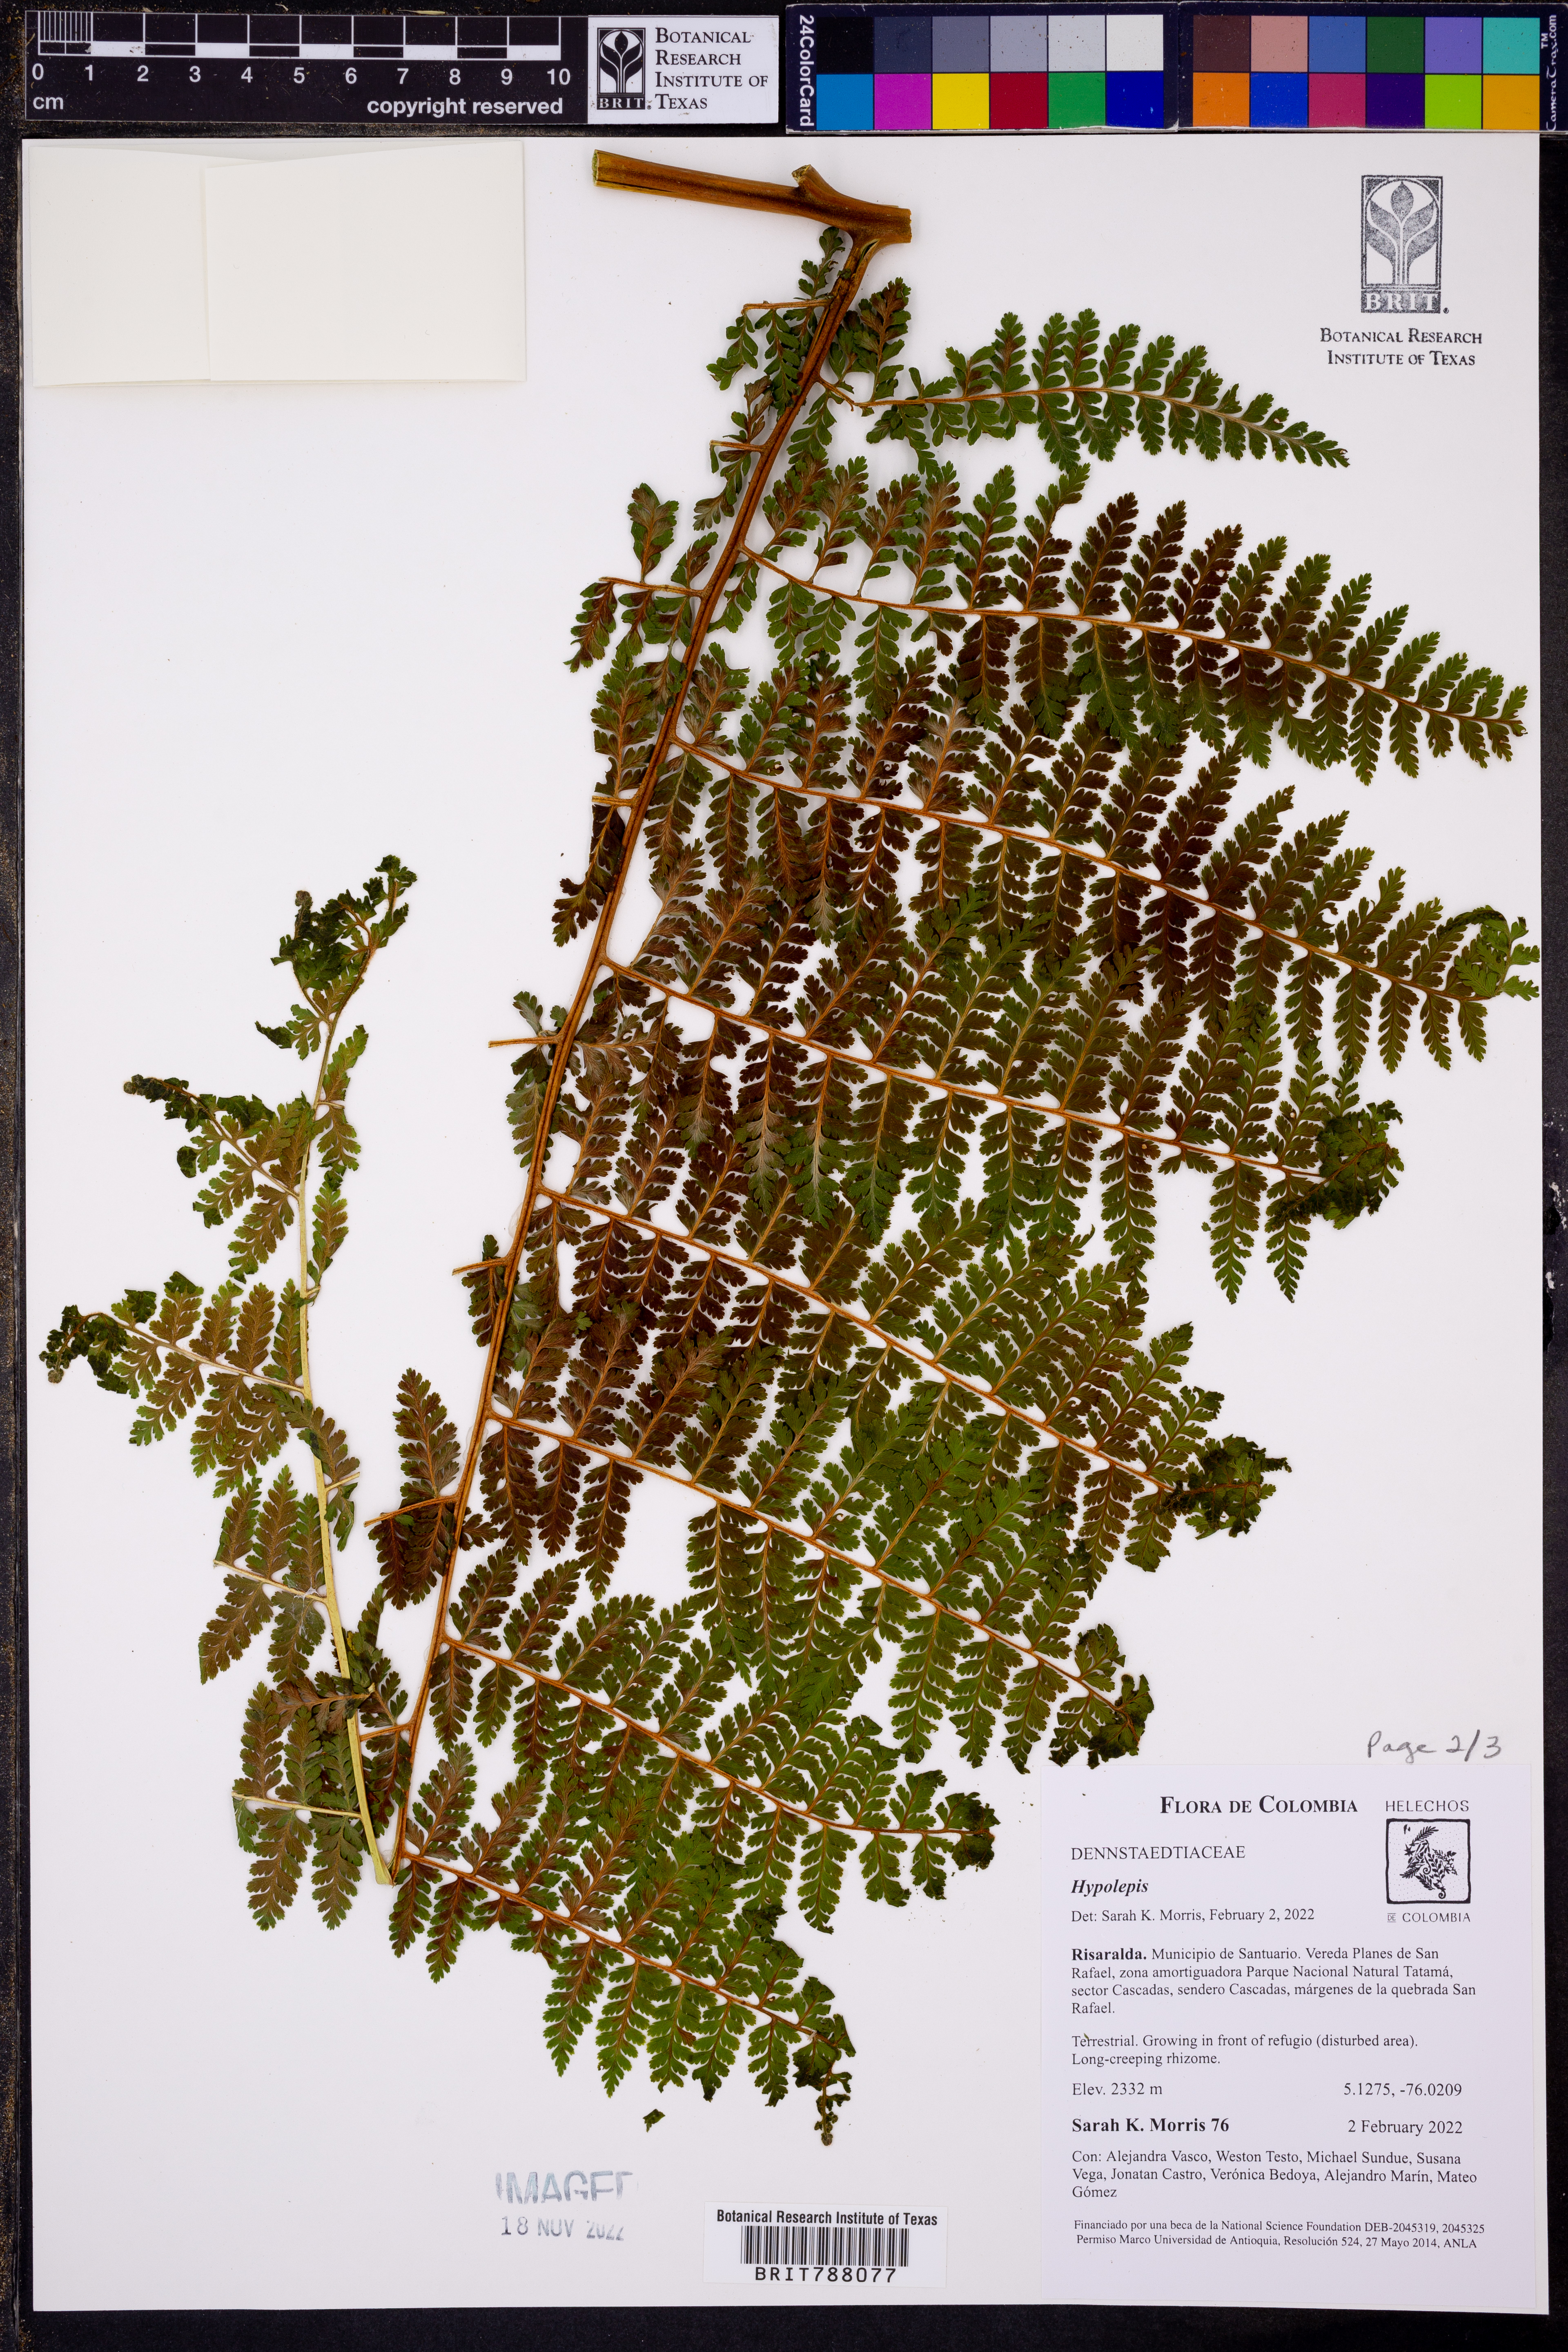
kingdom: Plantae
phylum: Tracheophyta
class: Polypodiopsida
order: Polypodiales
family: Dennstaedtiaceae
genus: Hypolepis
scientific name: Hypolepis
